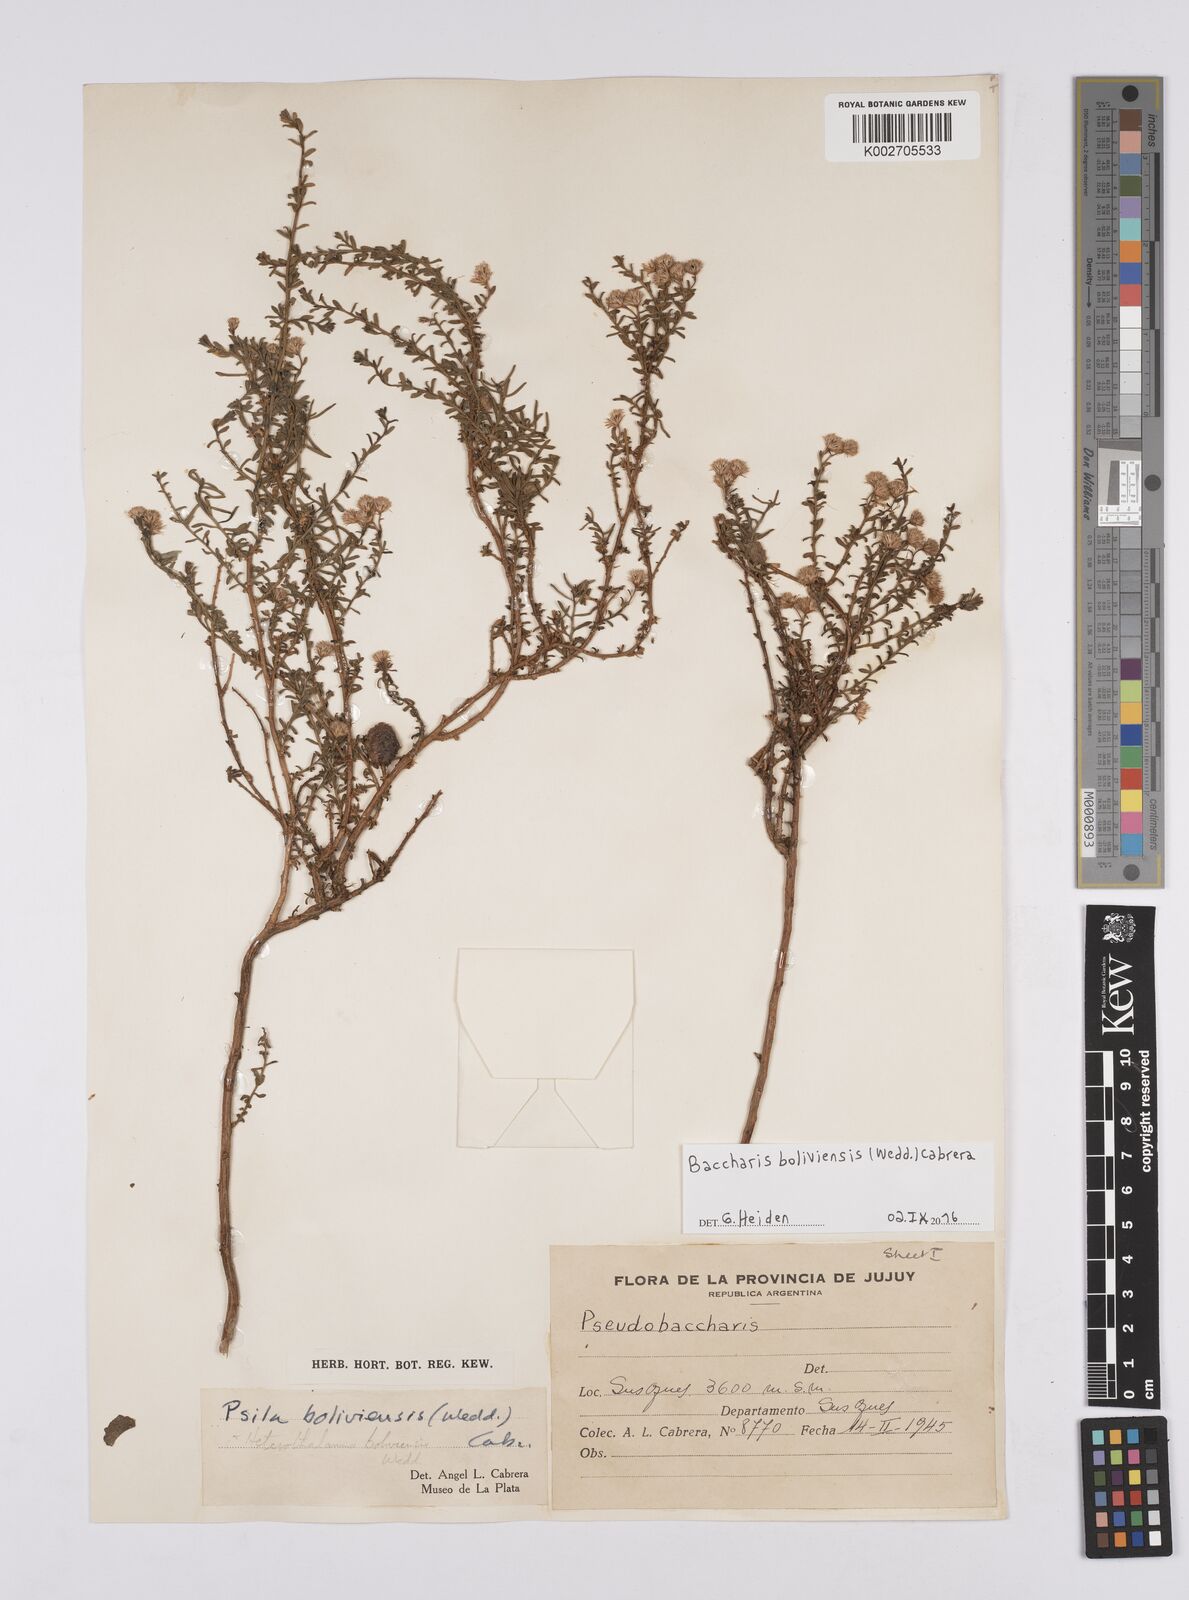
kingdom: Plantae
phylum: Tracheophyta
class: Magnoliopsida
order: Asterales
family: Asteraceae
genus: Baccharis
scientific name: Baccharis bolivensis
